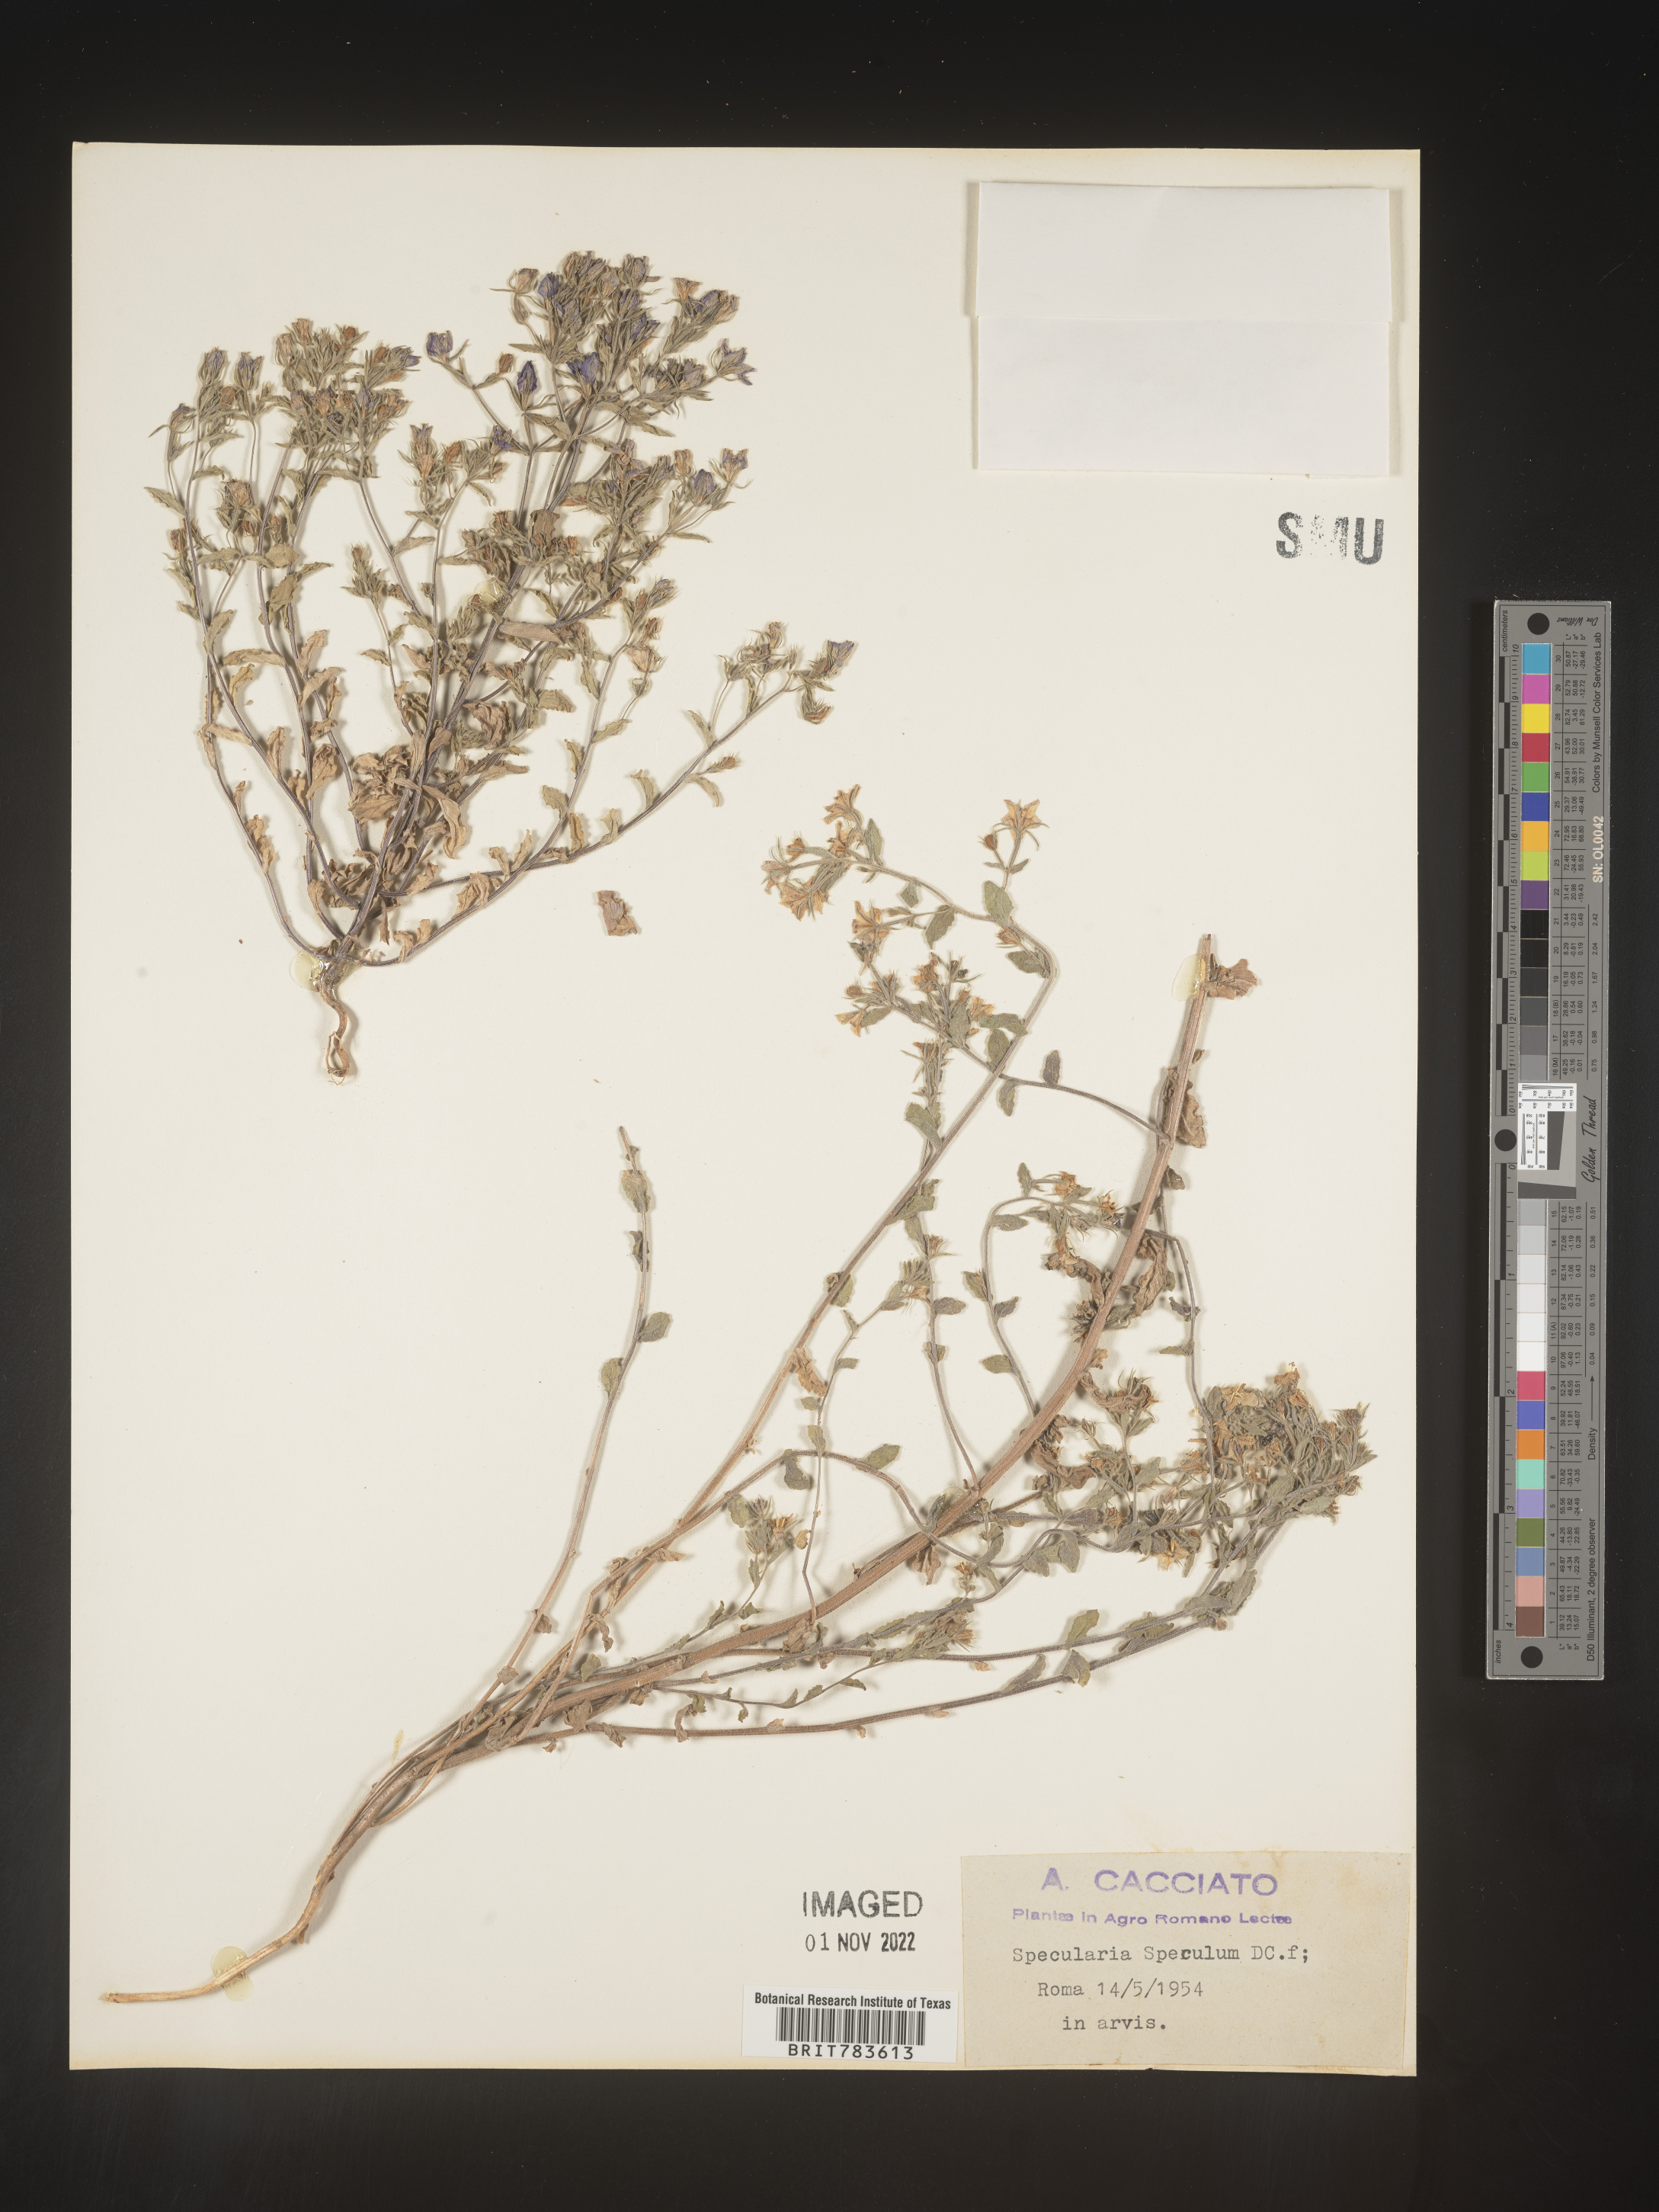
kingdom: Plantae
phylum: Tracheophyta
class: Magnoliopsida
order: Asterales
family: Campanulaceae
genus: Specularia
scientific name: Specularia
